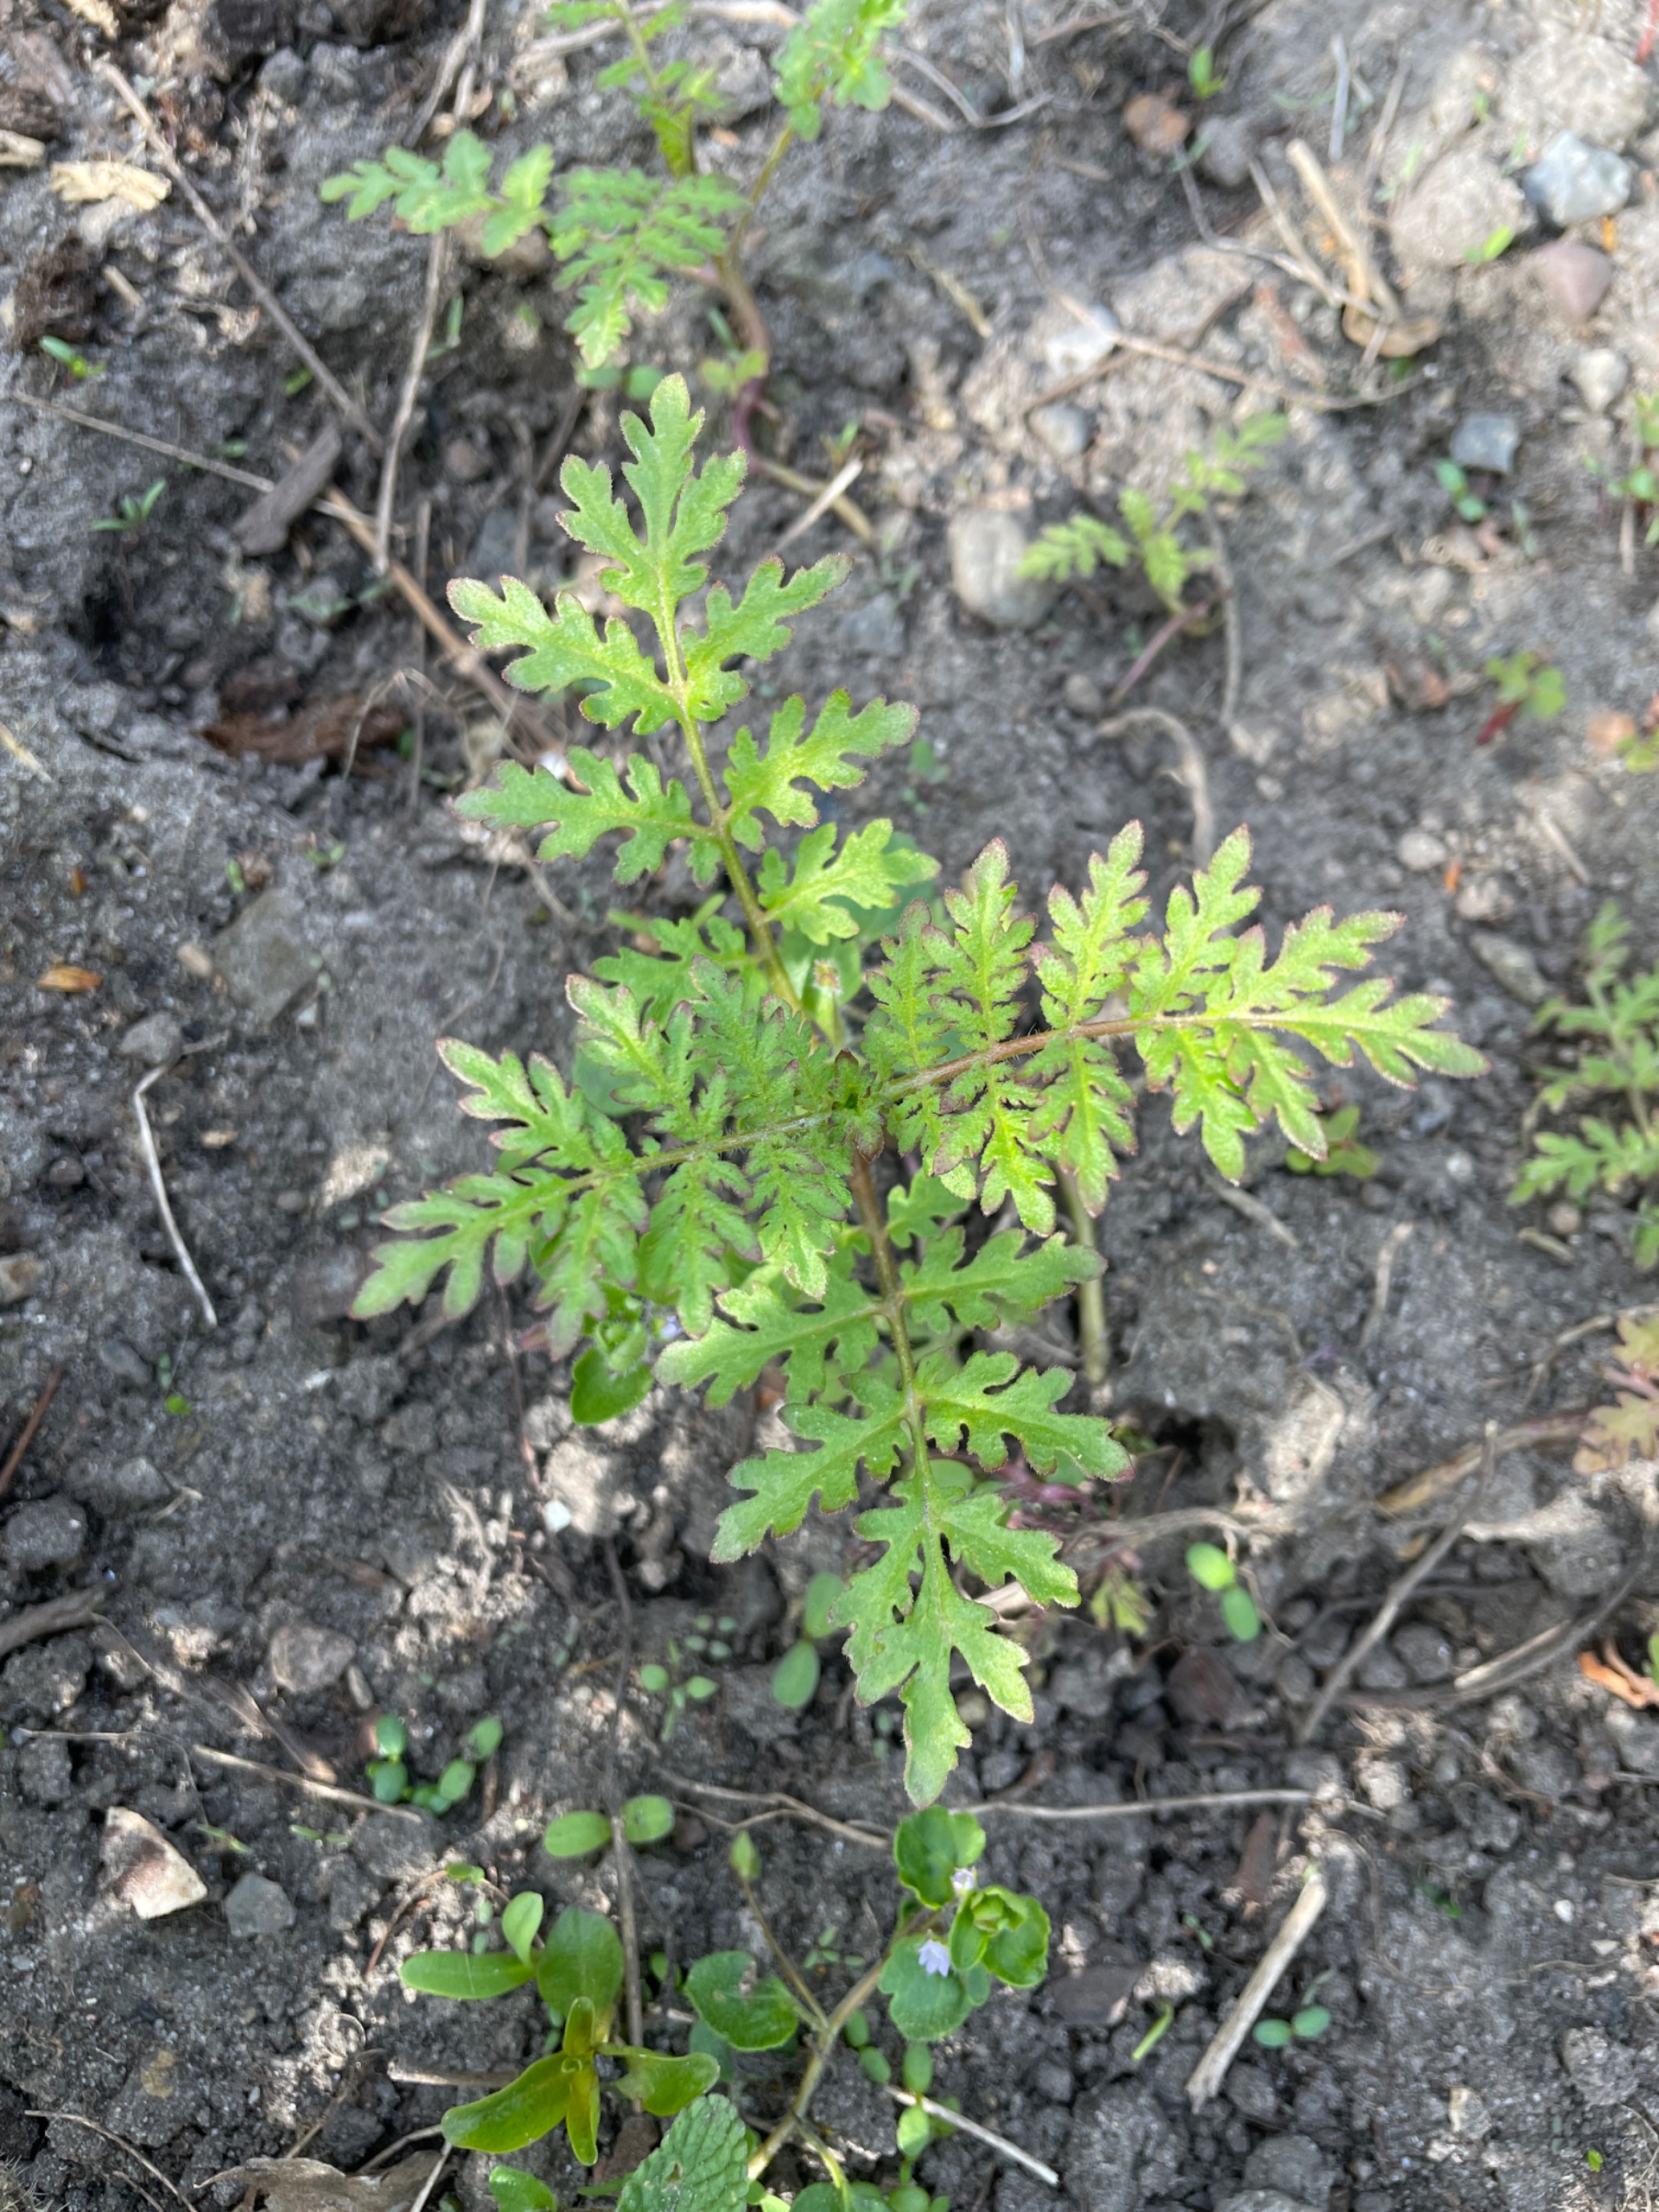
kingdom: Plantae
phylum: Tracheophyta
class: Magnoliopsida
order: Boraginales
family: Hydrophyllaceae
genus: Phacelia
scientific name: Phacelia tanacetifolia
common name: Honningurt
